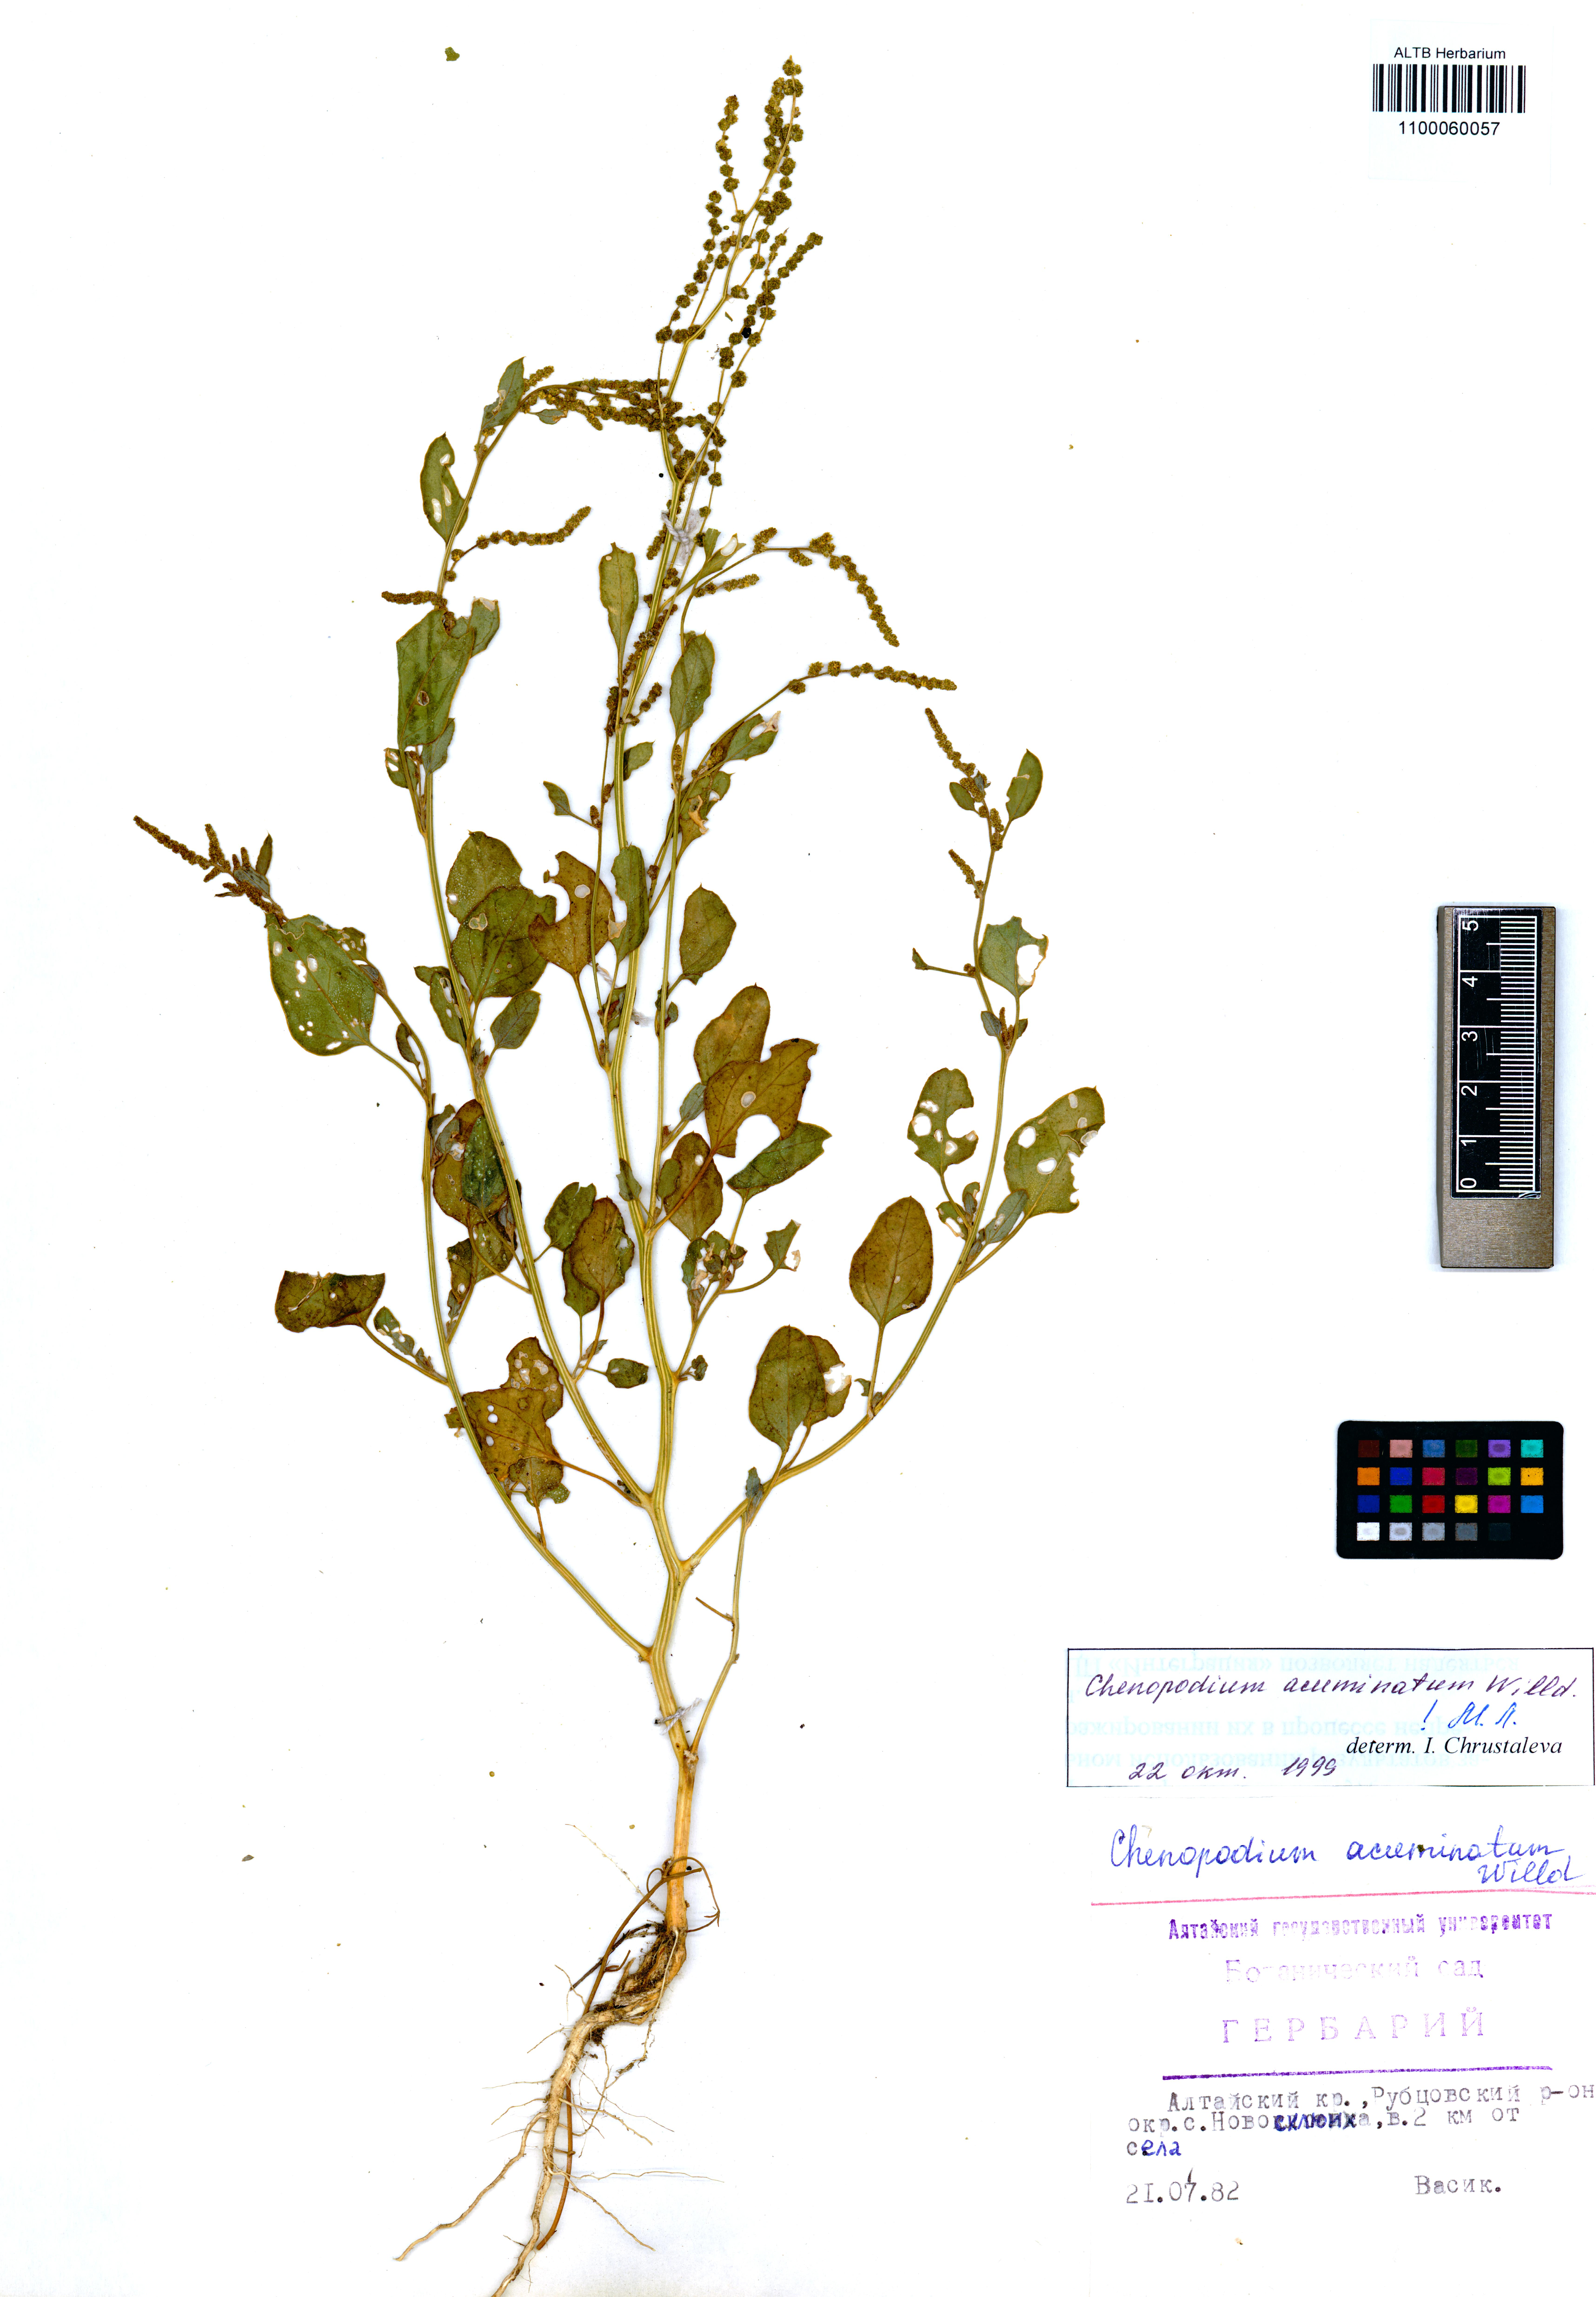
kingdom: Plantae
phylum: Tracheophyta
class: Magnoliopsida
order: Caryophyllales
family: Amaranthaceae
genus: Chenopodium
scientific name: Chenopodium acuminatum
